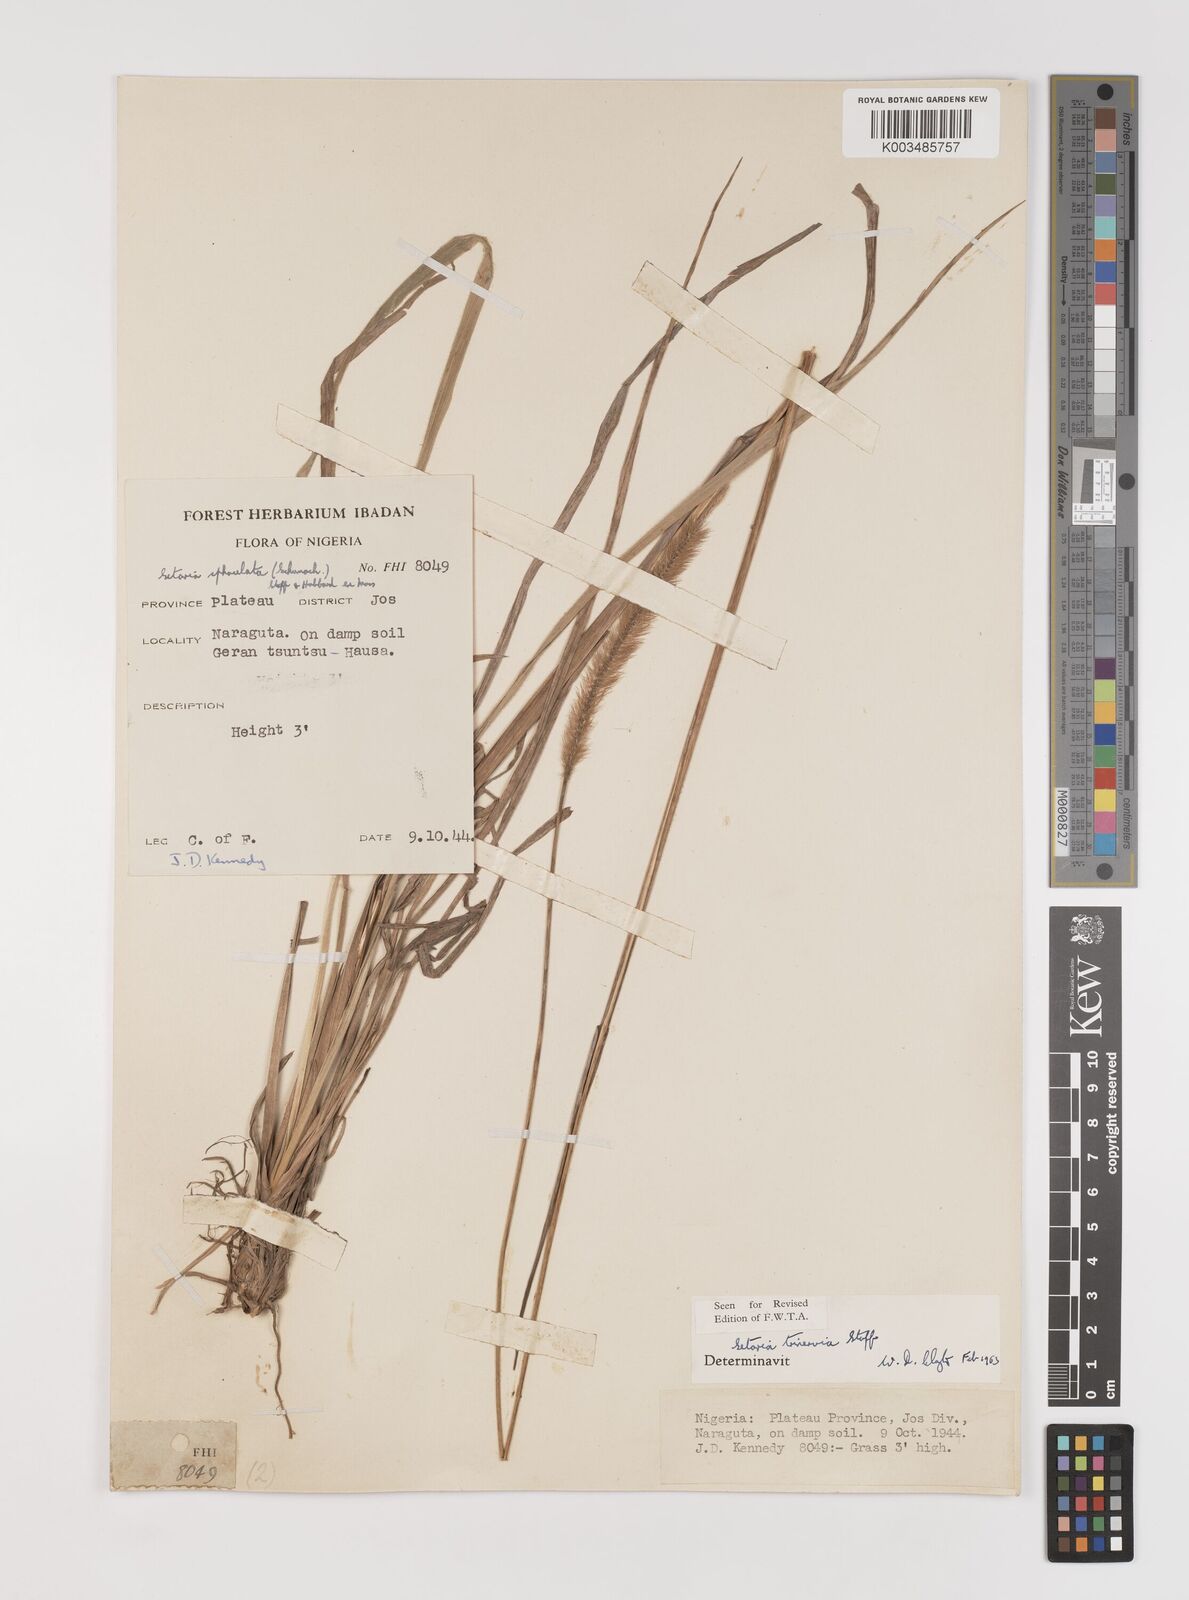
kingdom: Plantae
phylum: Tracheophyta
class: Liliopsida
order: Poales
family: Poaceae
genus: Setaria
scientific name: Setaria sphacelata
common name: African bristlegrass
